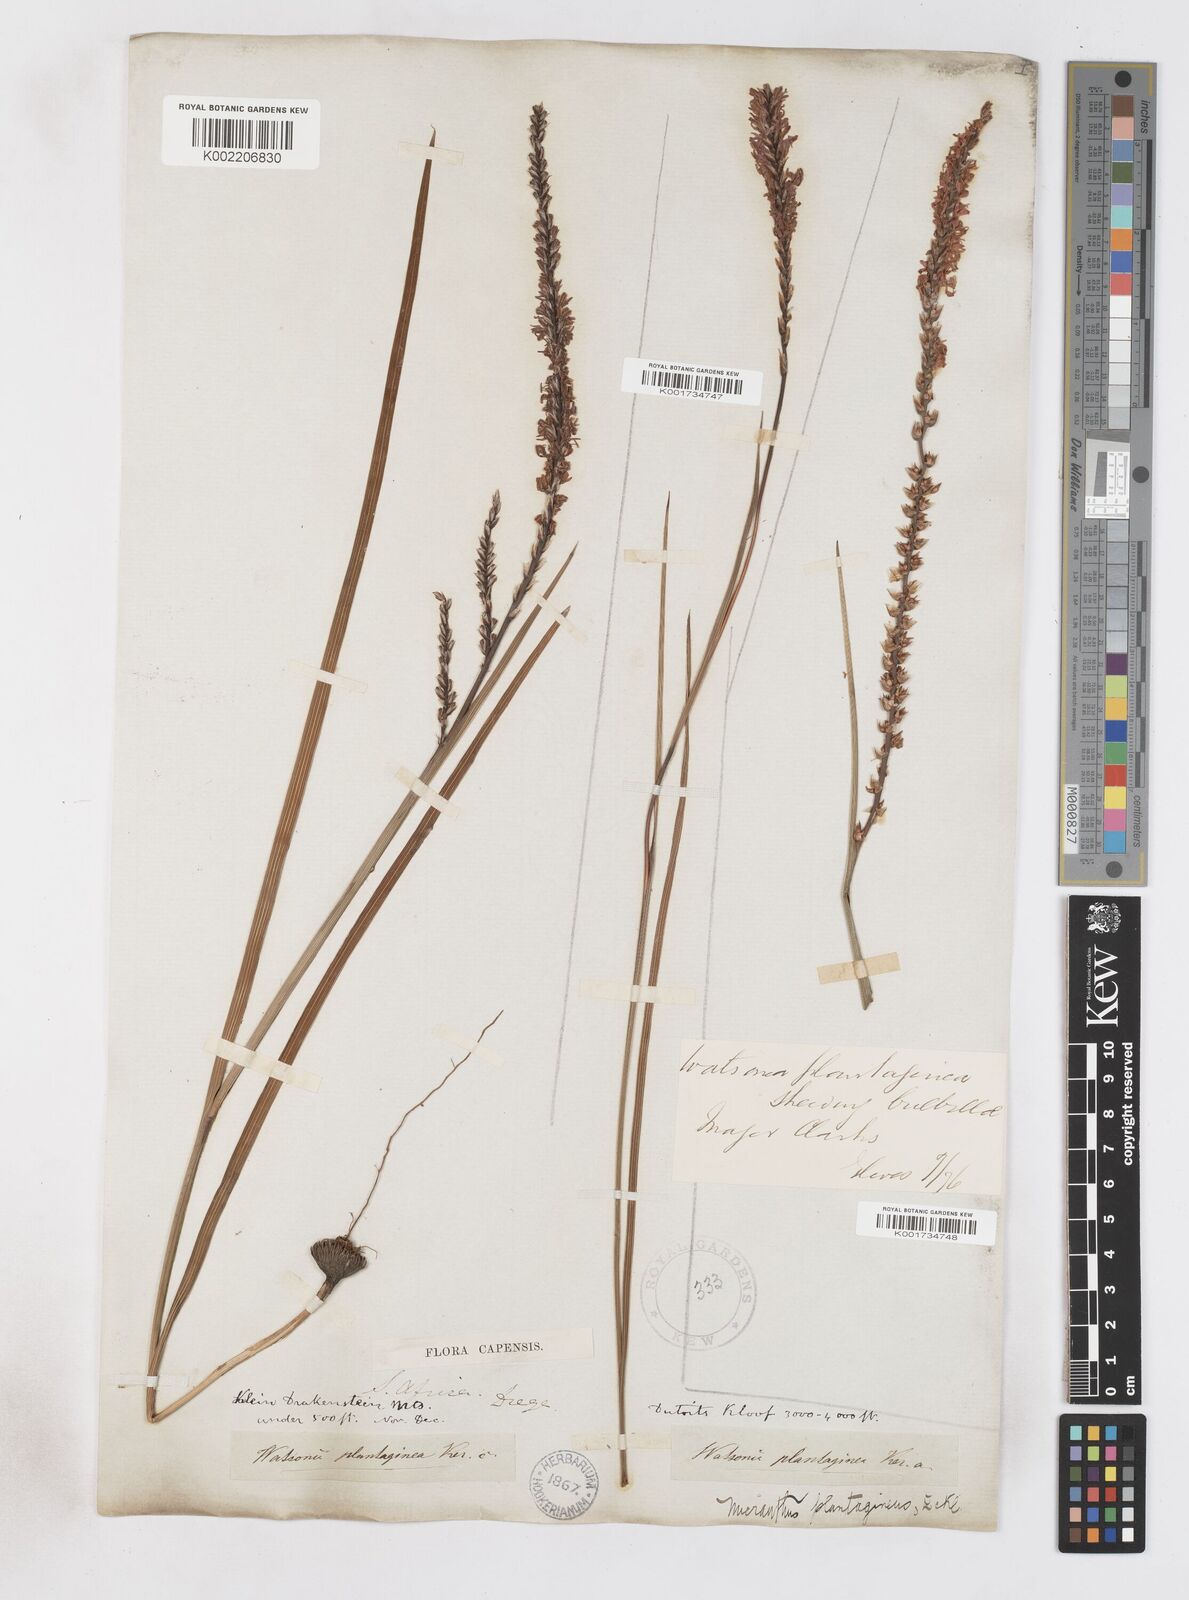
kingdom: Plantae
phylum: Tracheophyta
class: Liliopsida
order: Asparagales
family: Iridaceae
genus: Micranthus
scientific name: Micranthus alopecuroides
